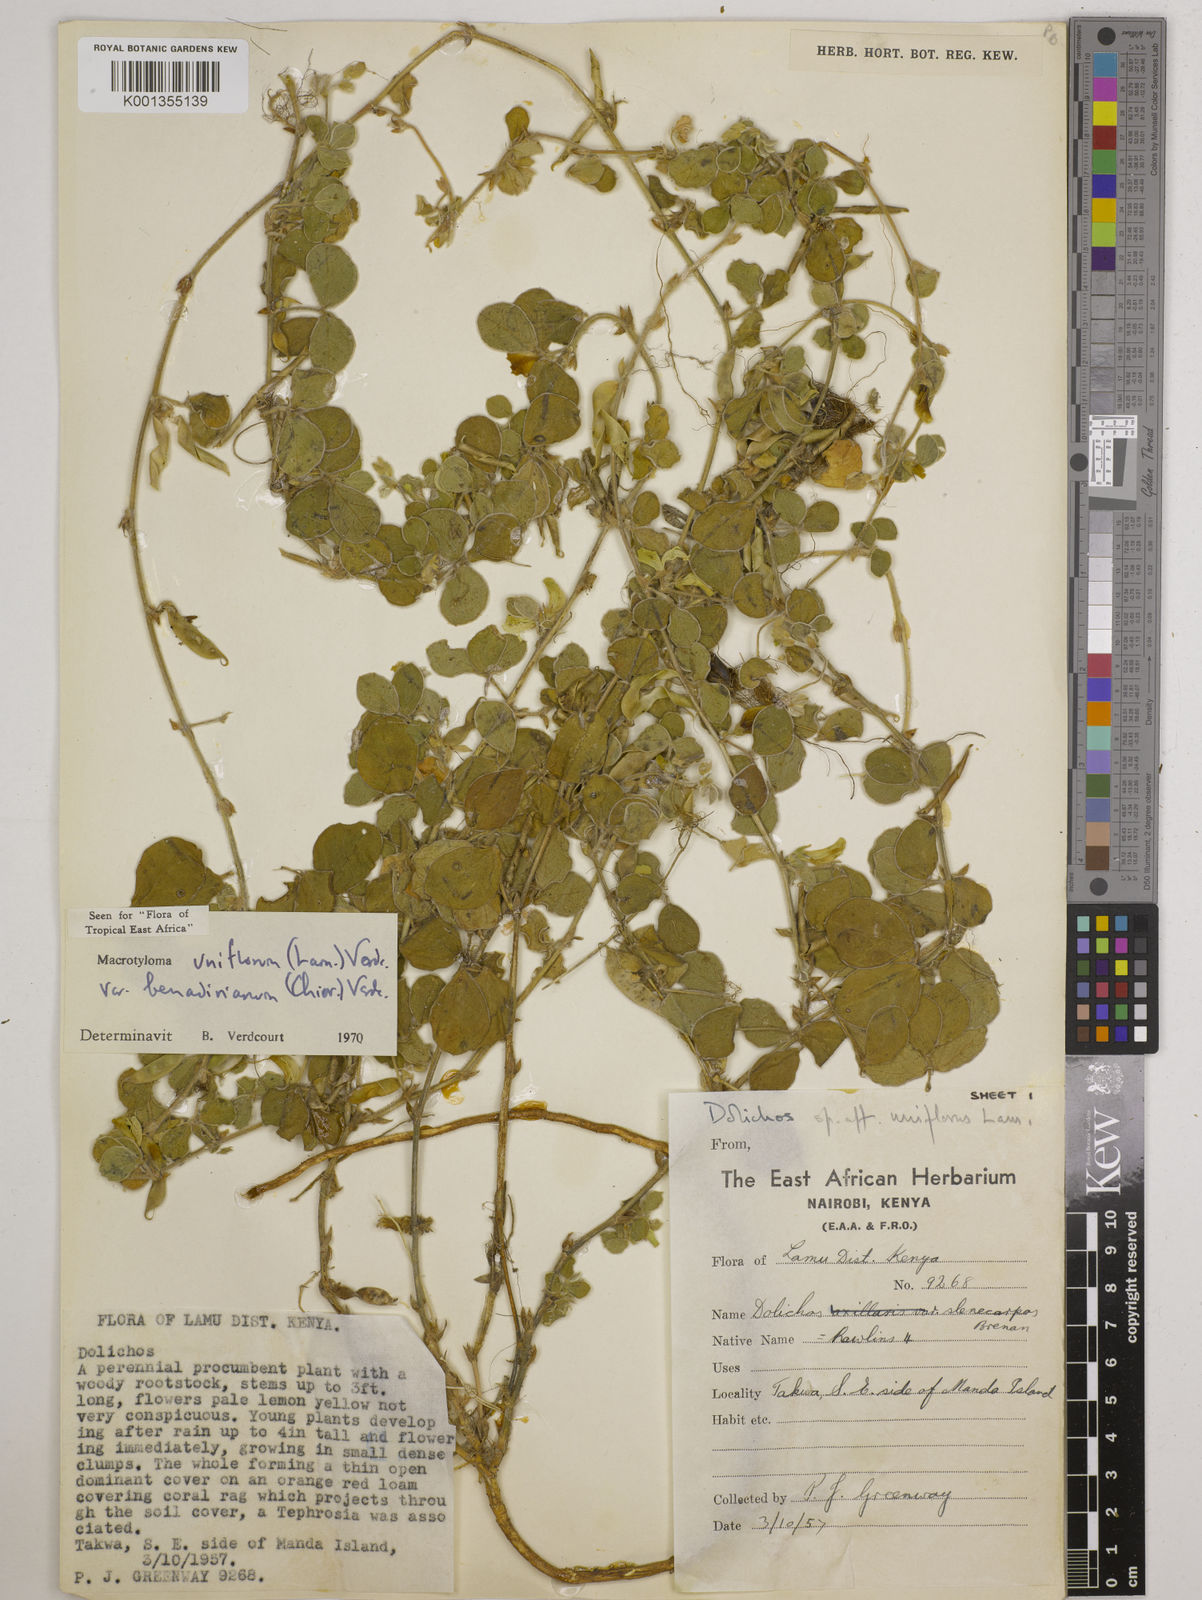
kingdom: Plantae
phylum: Tracheophyta
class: Magnoliopsida
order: Fabales
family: Fabaceae
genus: Macrotyloma
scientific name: Macrotyloma
